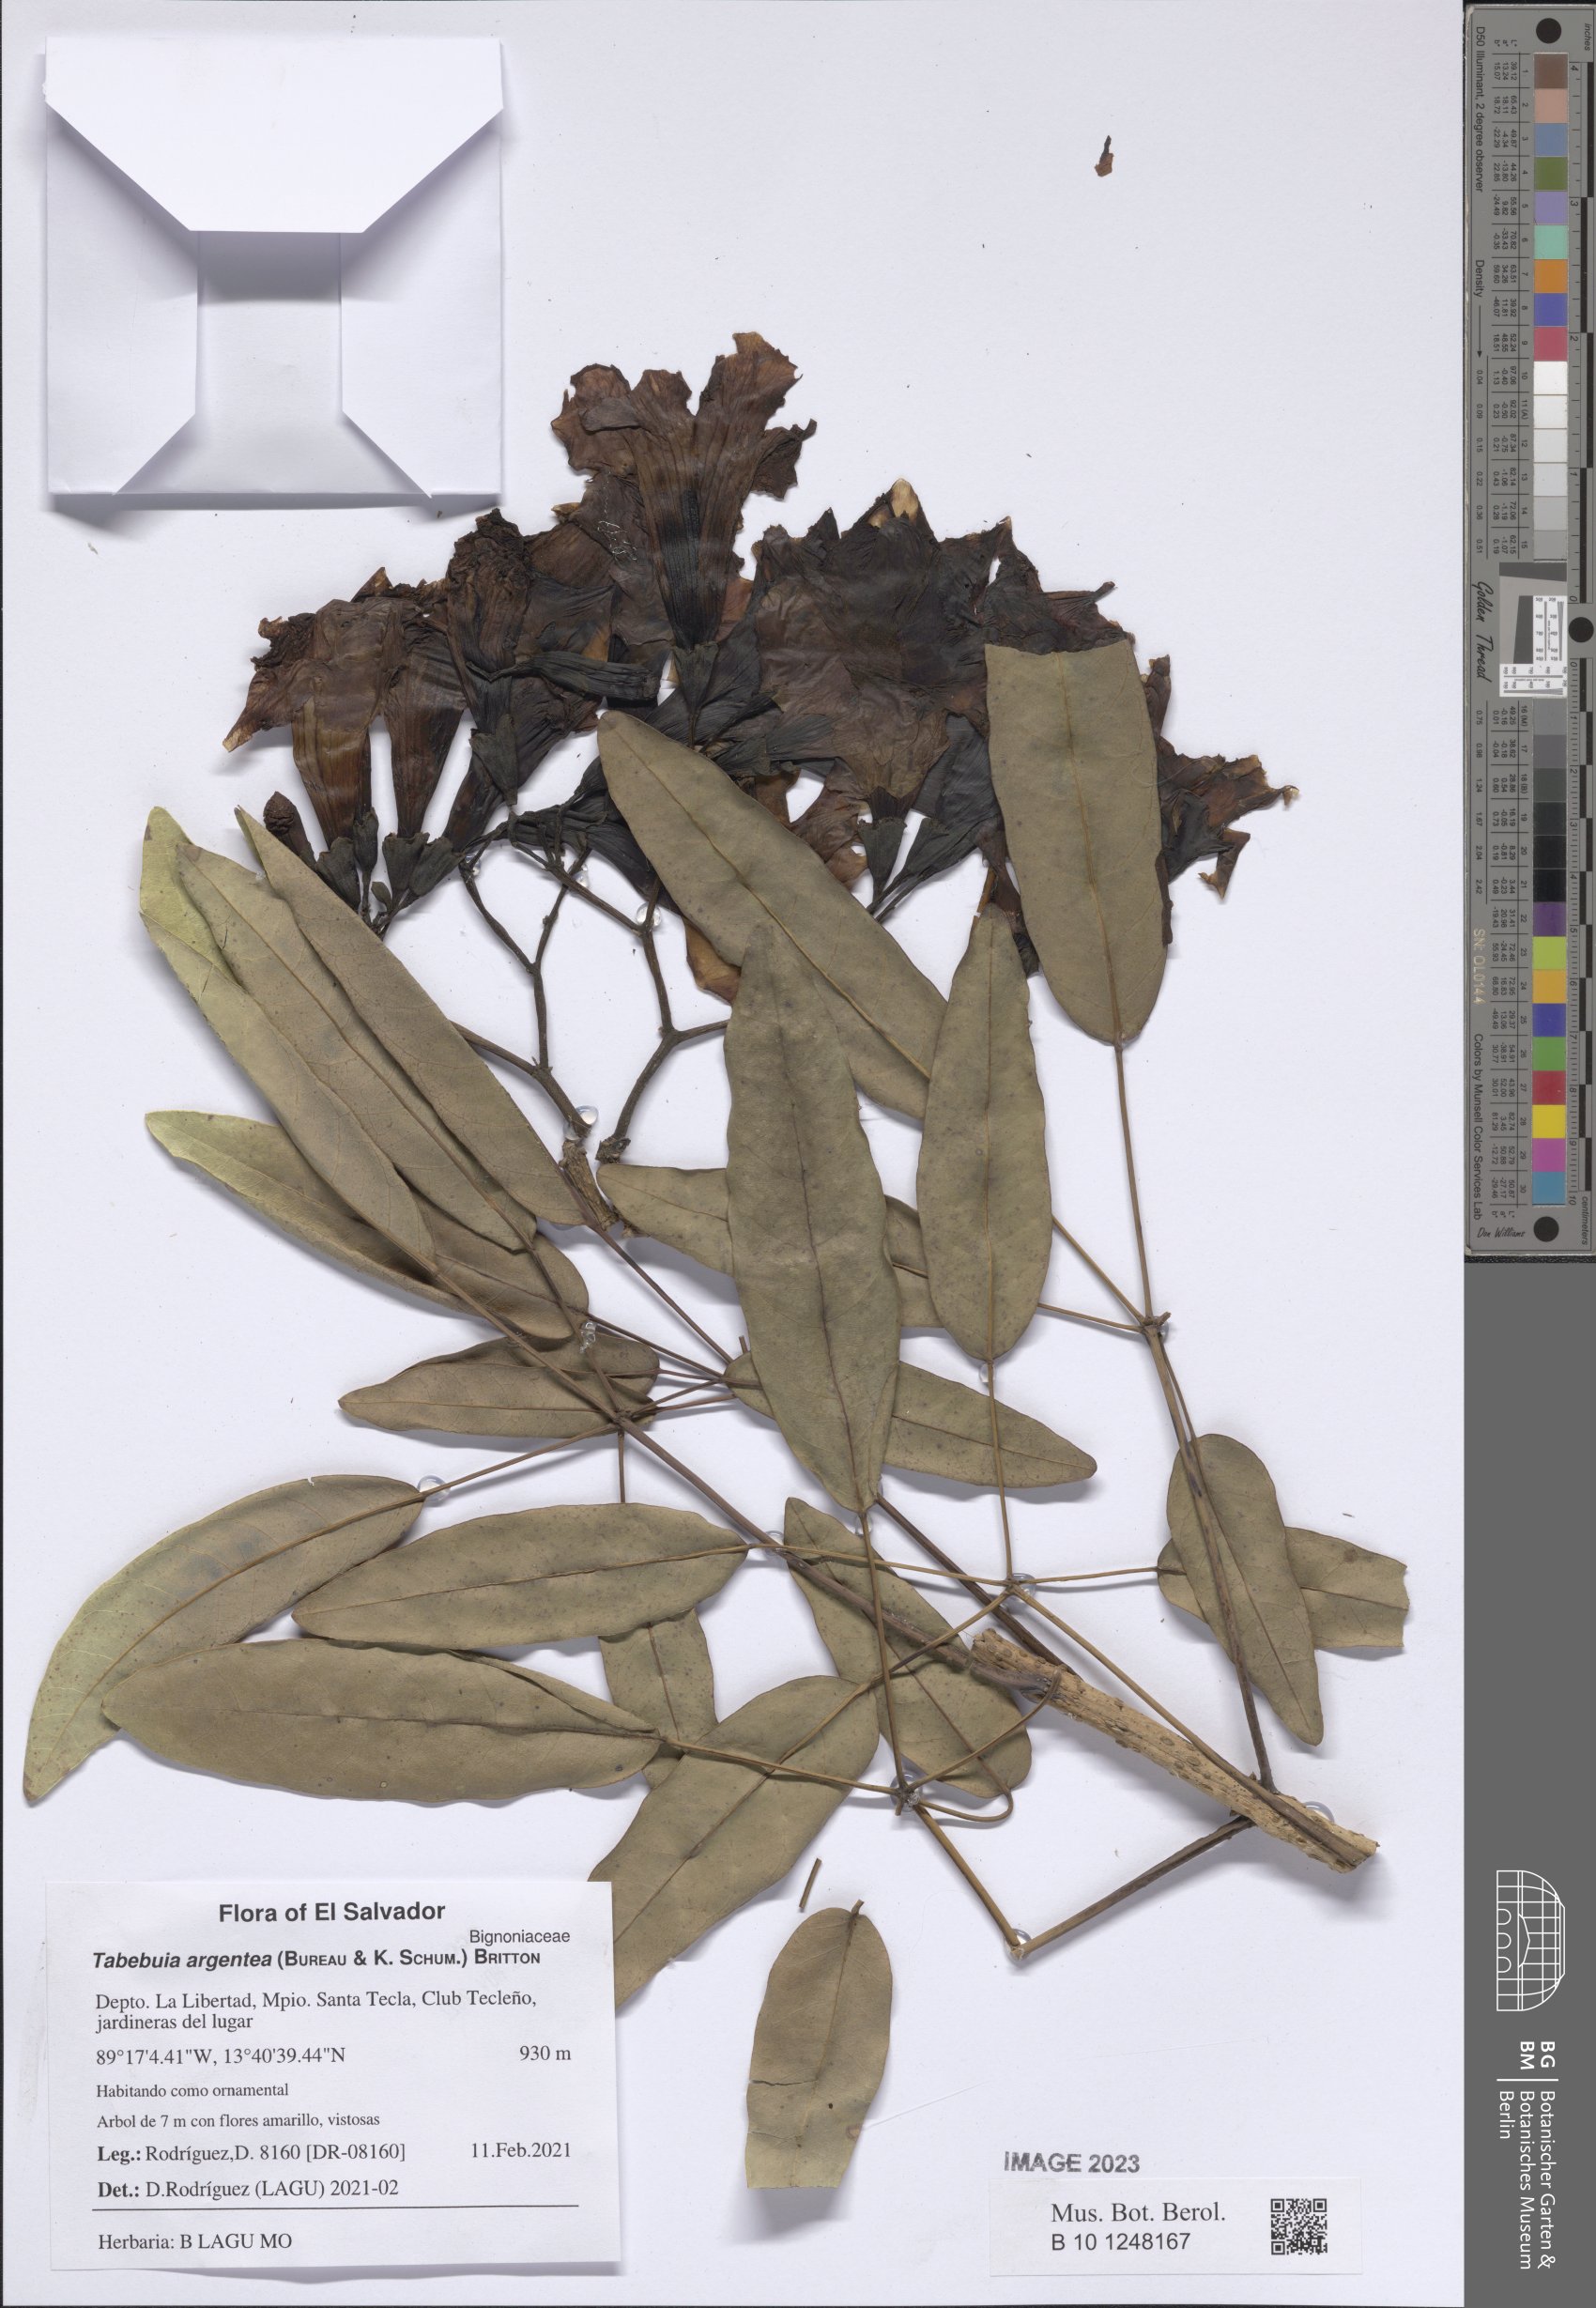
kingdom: Plantae
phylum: Tracheophyta
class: Magnoliopsida
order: Lamiales
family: Bignoniaceae
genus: Tabebuia
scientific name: Tabebuia aurea
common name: Caribbean trumpet-tree
